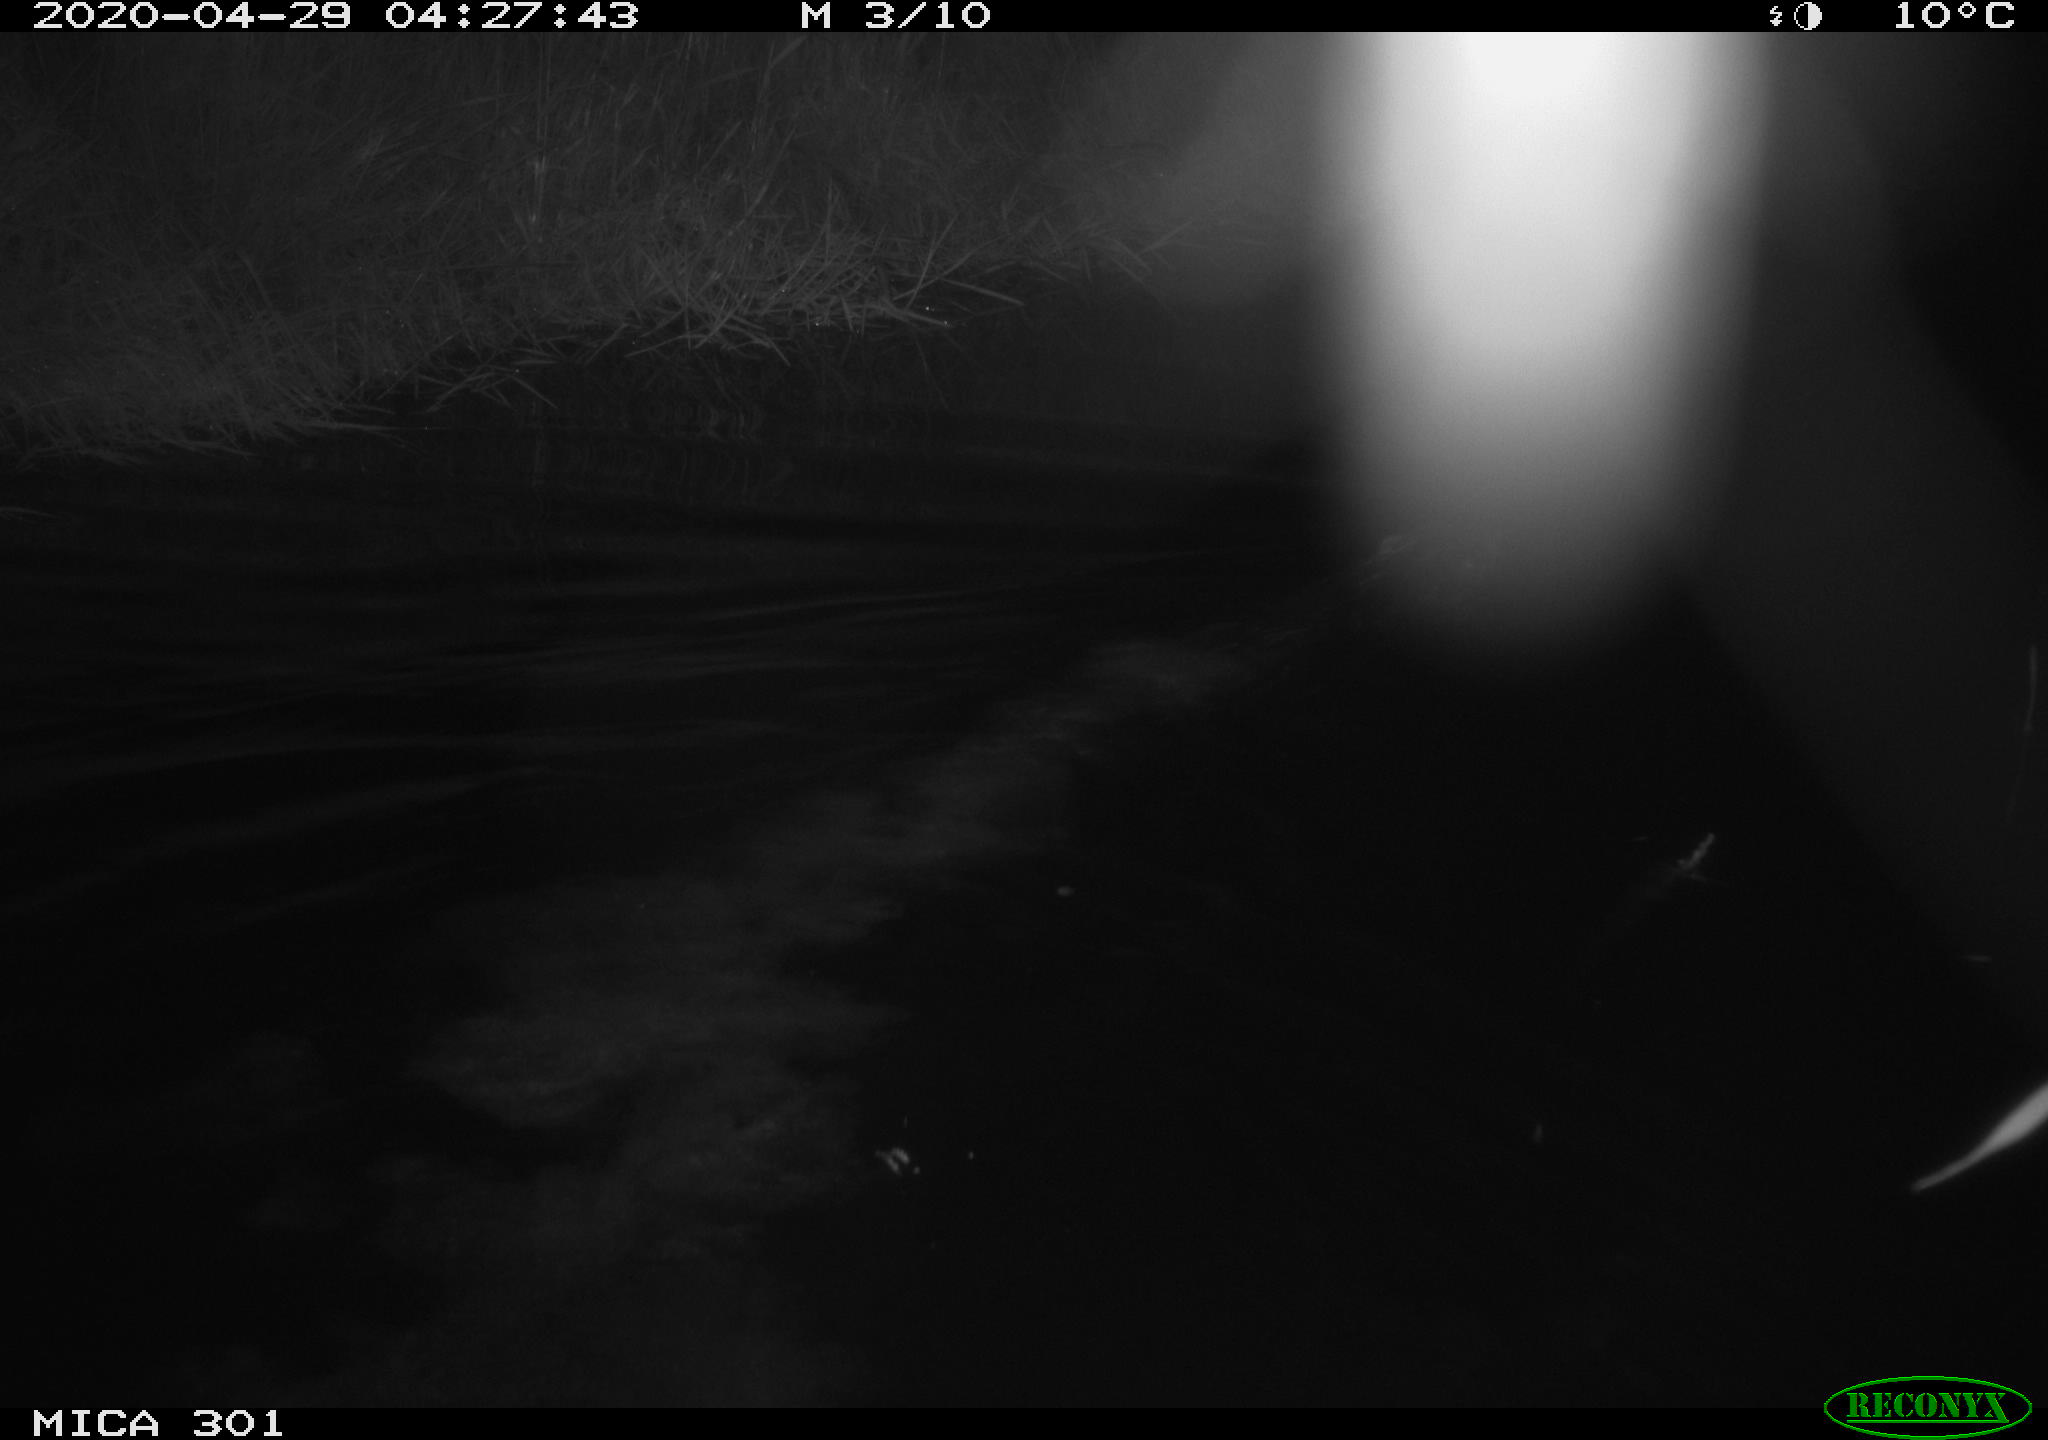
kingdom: Animalia
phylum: Chordata
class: Mammalia
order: Rodentia
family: Castoridae
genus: Castor
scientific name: Castor fiber
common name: Eurasian beaver
